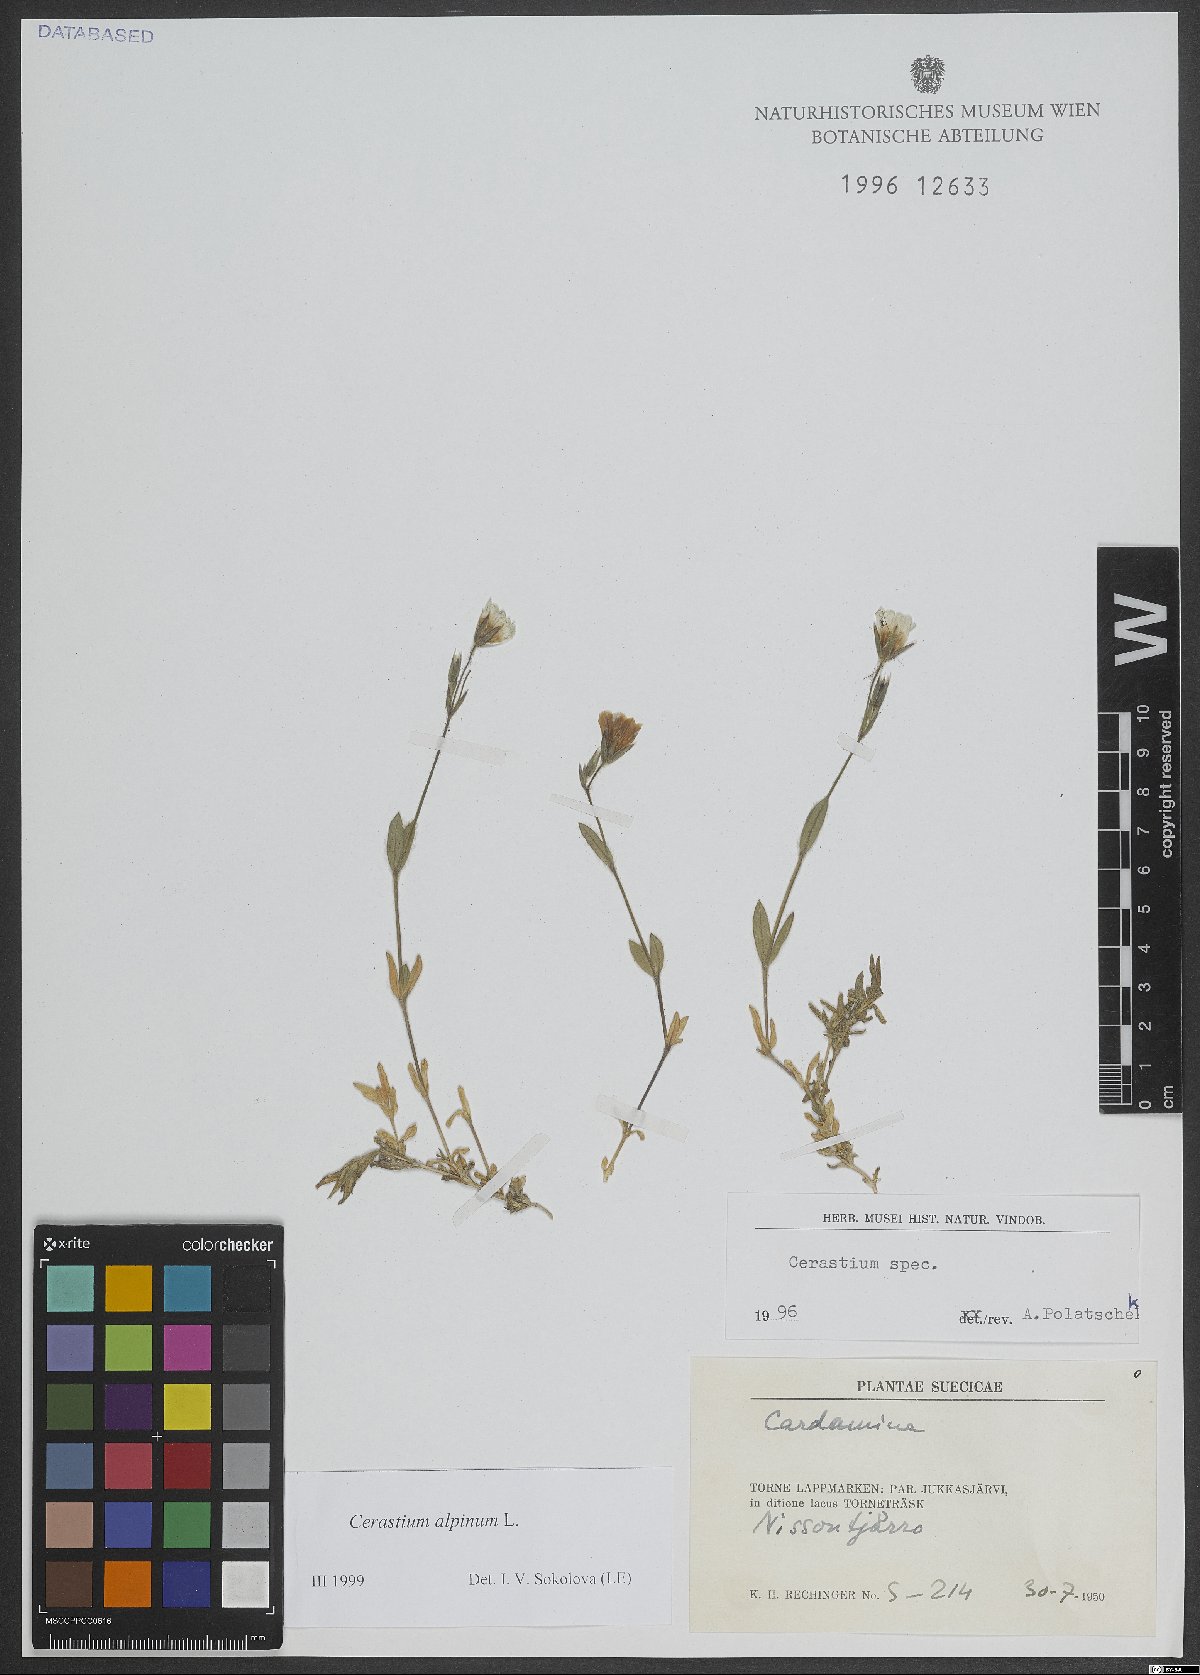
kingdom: Plantae
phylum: Tracheophyta
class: Magnoliopsida
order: Caryophyllales
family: Caryophyllaceae
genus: Cerastium
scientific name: Cerastium alpinum
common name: Alpine mouse-ear
